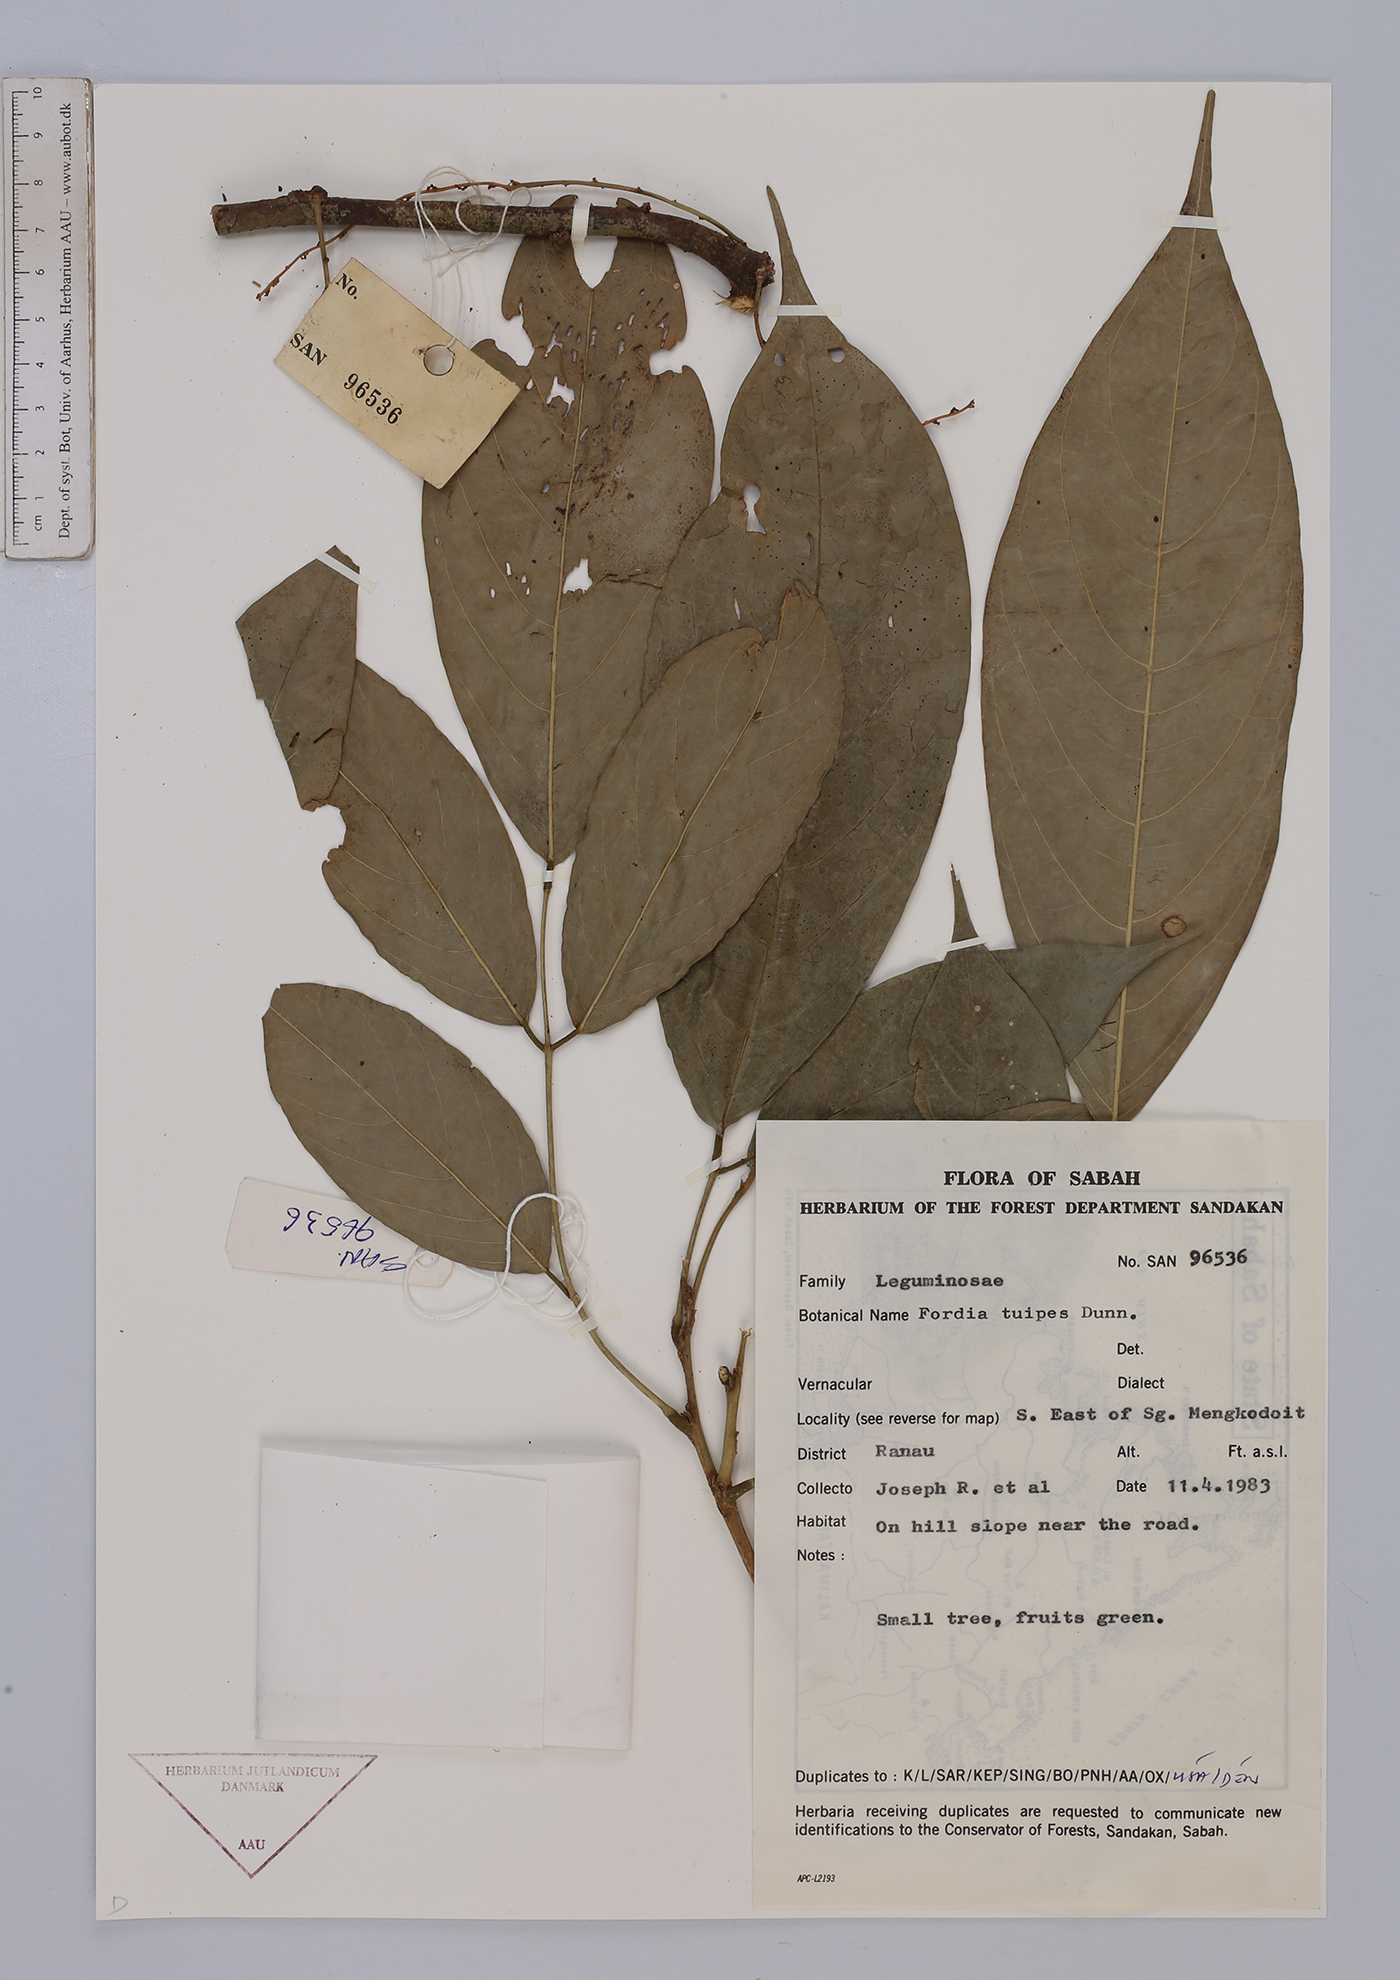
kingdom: Plantae
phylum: Tracheophyta
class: Magnoliopsida
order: Fabales
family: Fabaceae
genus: Fordia
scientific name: Fordia splendidissima
